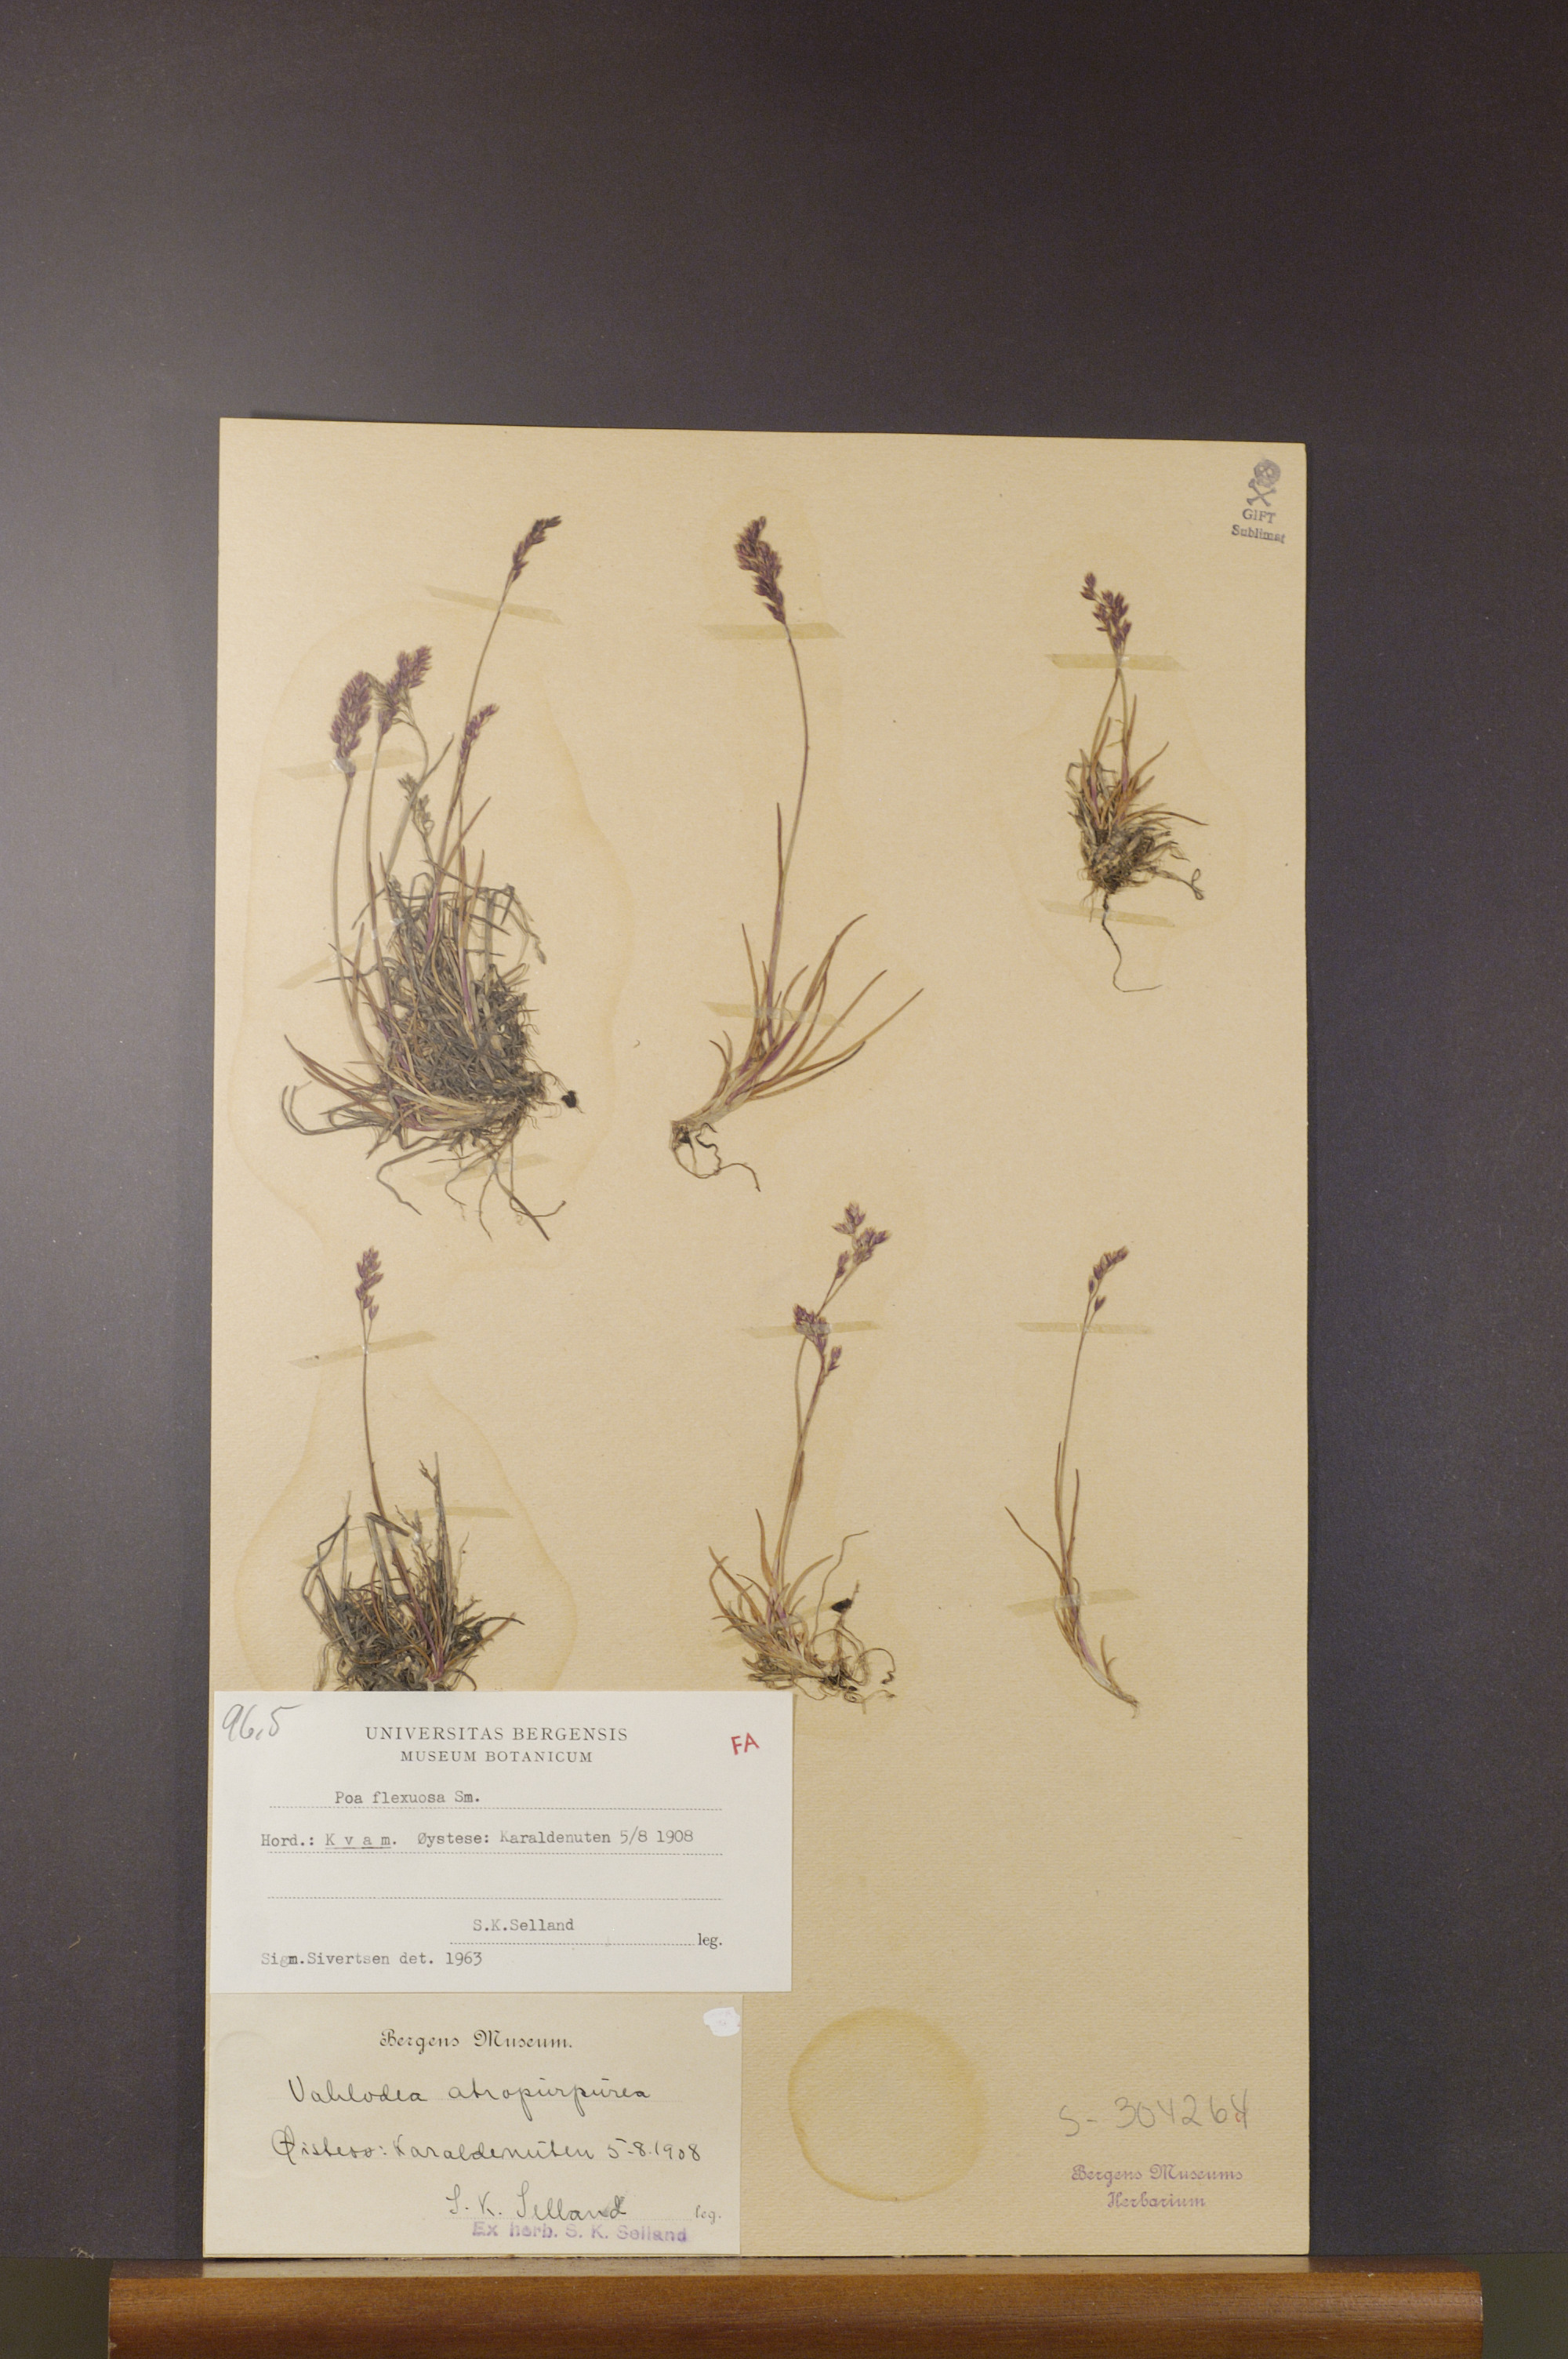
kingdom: Plantae
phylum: Tracheophyta
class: Liliopsida
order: Poales
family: Poaceae
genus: Poa
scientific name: Poa flexuosa
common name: Wavy meadow-grass
